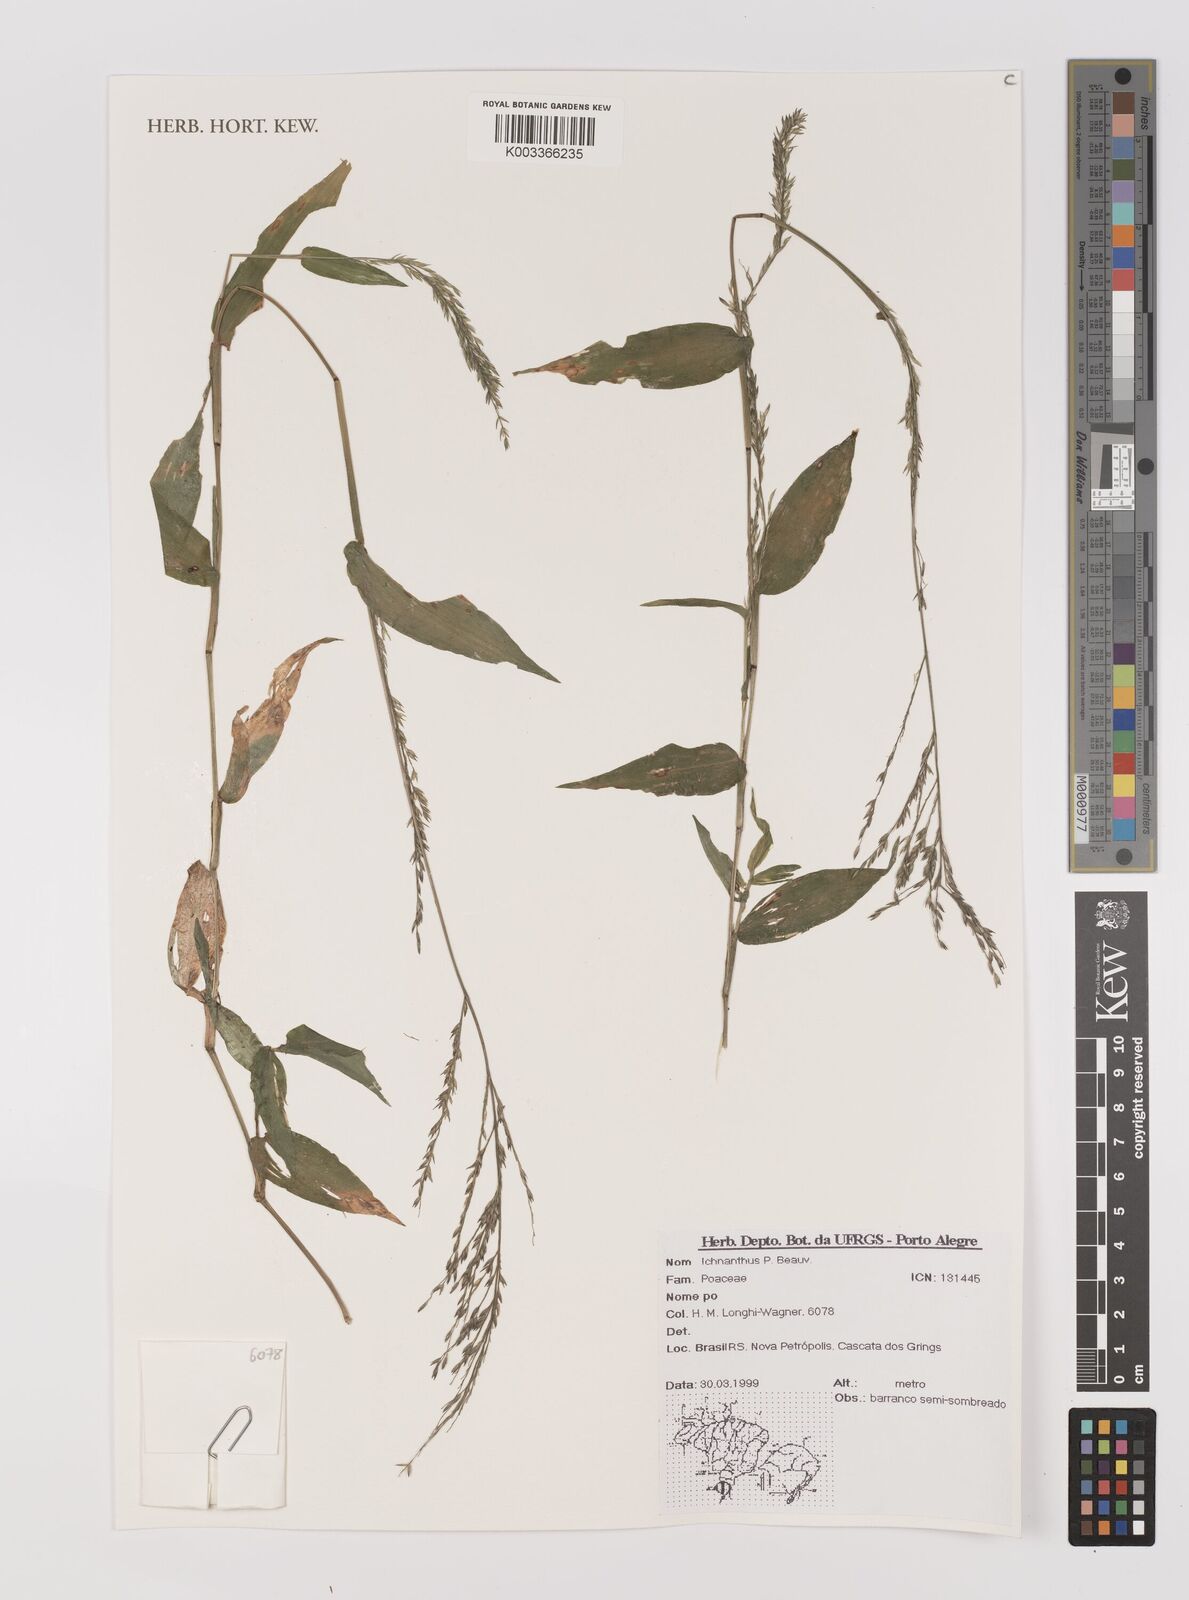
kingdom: Plantae
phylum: Tracheophyta
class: Liliopsida
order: Poales
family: Poaceae
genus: Ichnanthus
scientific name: Ichnanthus
